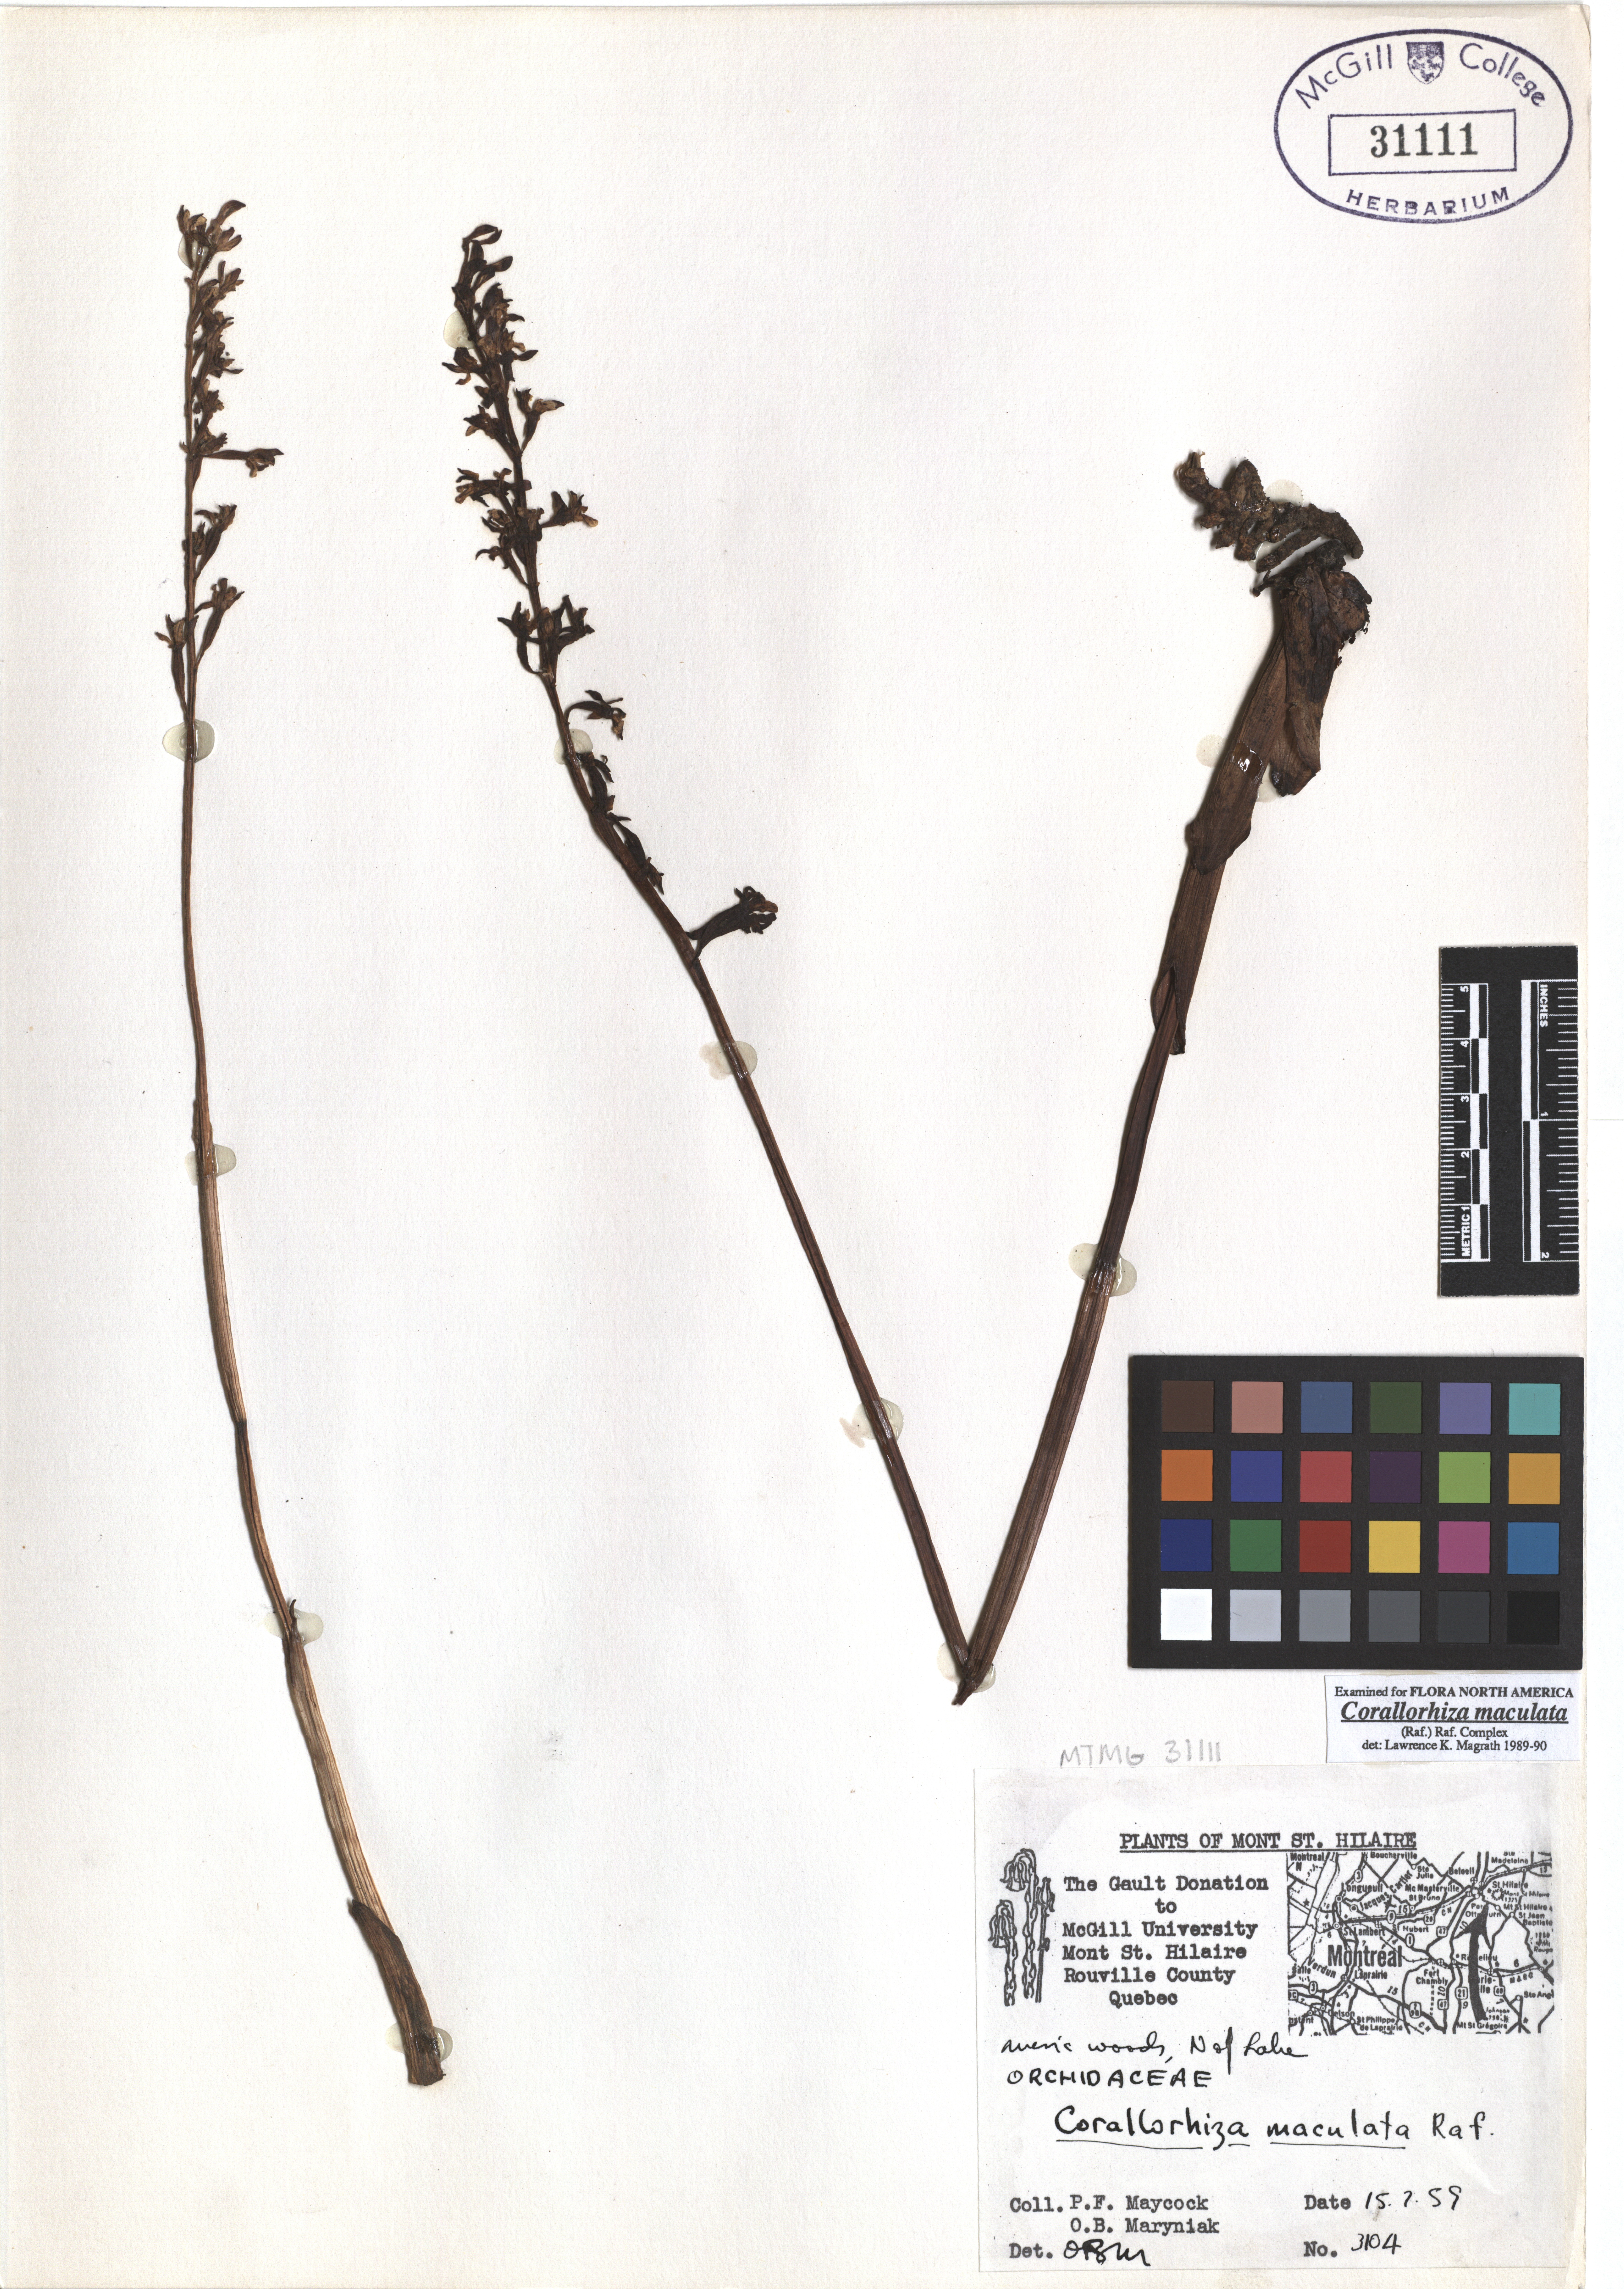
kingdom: Plantae
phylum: Tracheophyta
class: Liliopsida
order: Asparagales
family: Orchidaceae
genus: Corallorhiza
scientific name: Corallorhiza maculata
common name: Spotted coralroot
